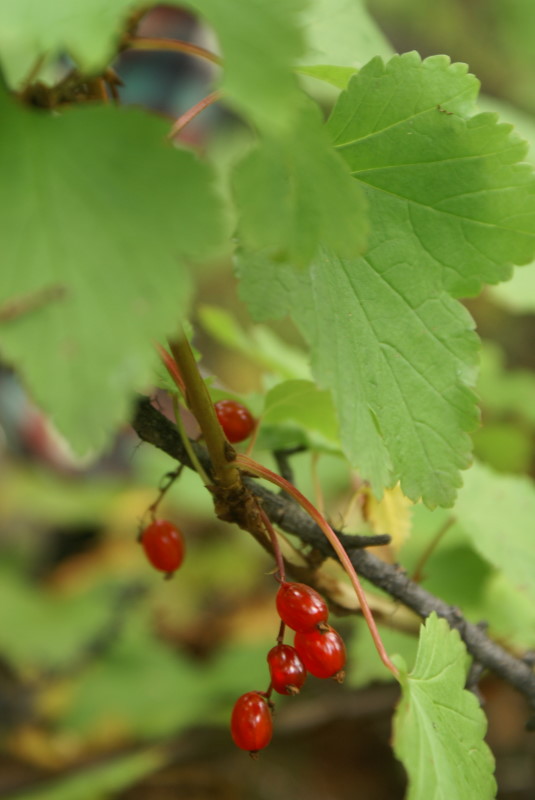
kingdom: Plantae
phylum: Tracheophyta
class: Magnoliopsida
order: Saxifragales
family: Grossulariaceae
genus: Ribes
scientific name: Ribes triste
